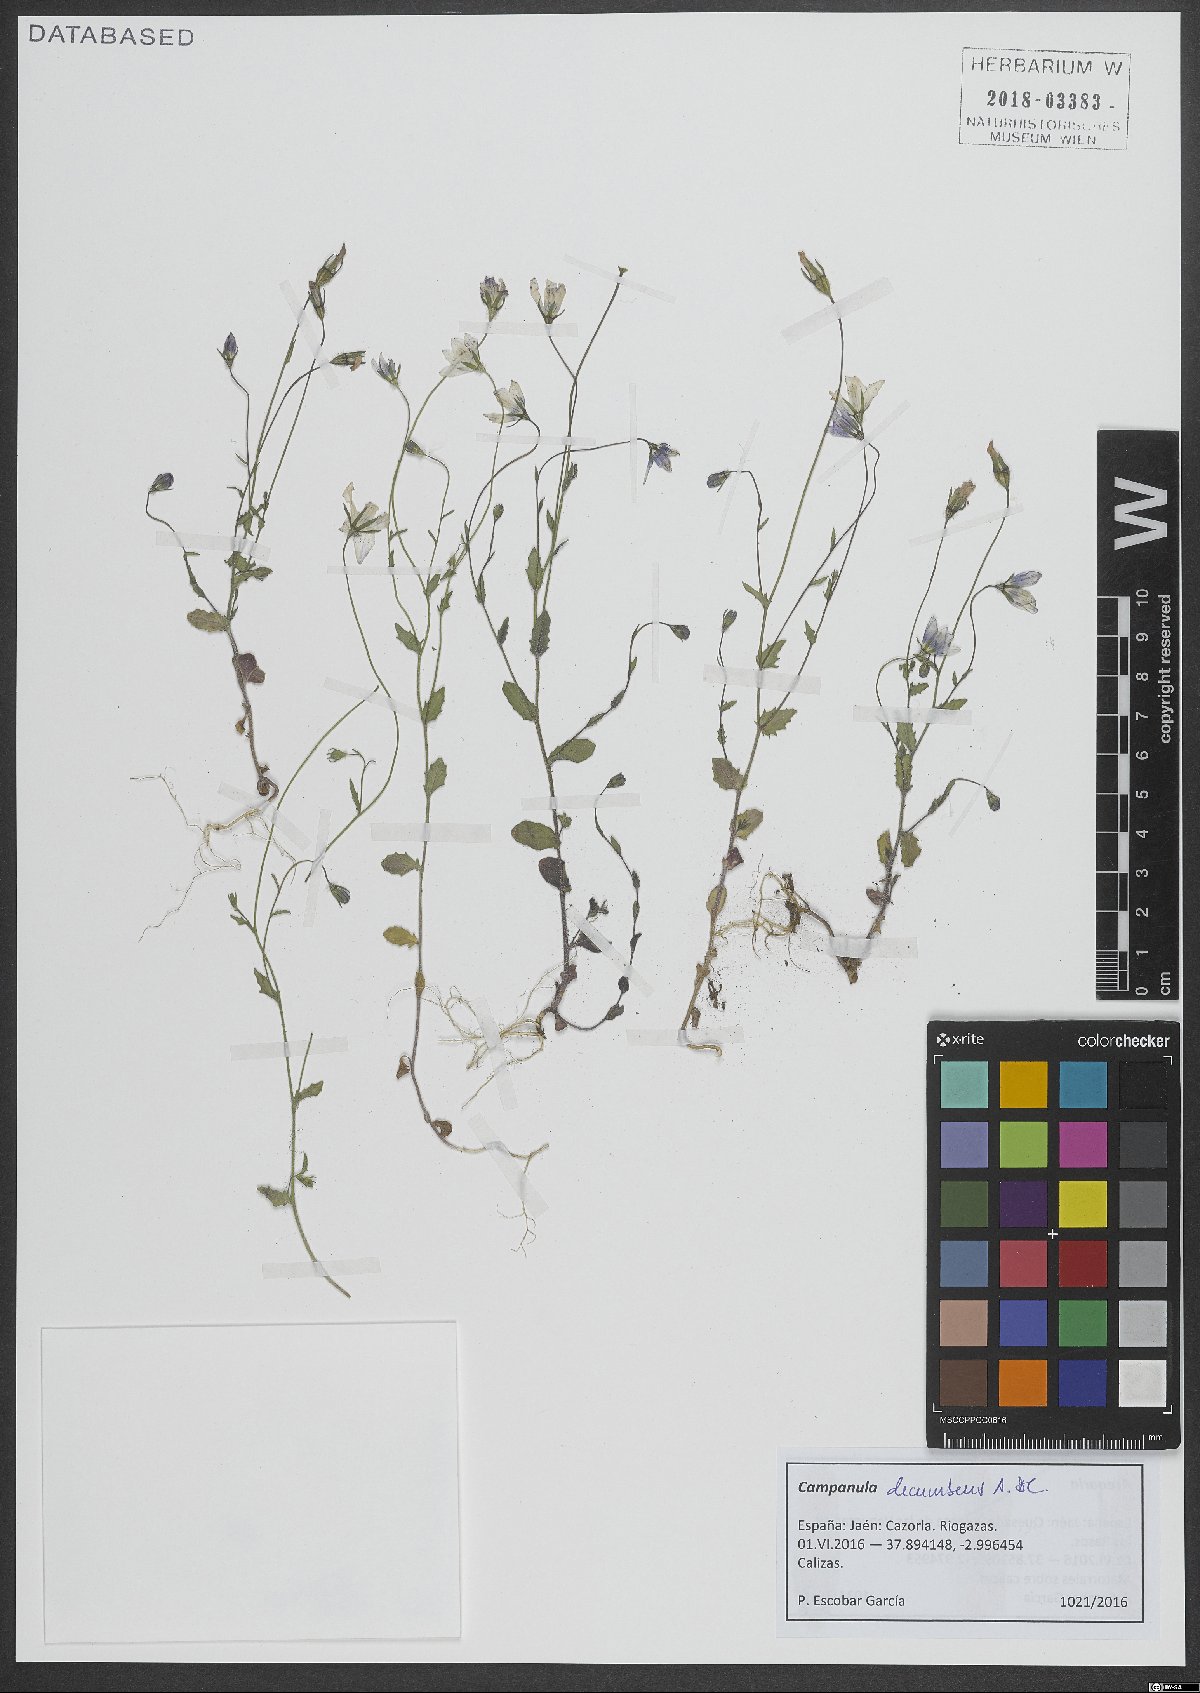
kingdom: Plantae
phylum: Tracheophyta
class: Magnoliopsida
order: Asterales
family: Campanulaceae
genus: Campanula
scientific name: Campanula decumbens
